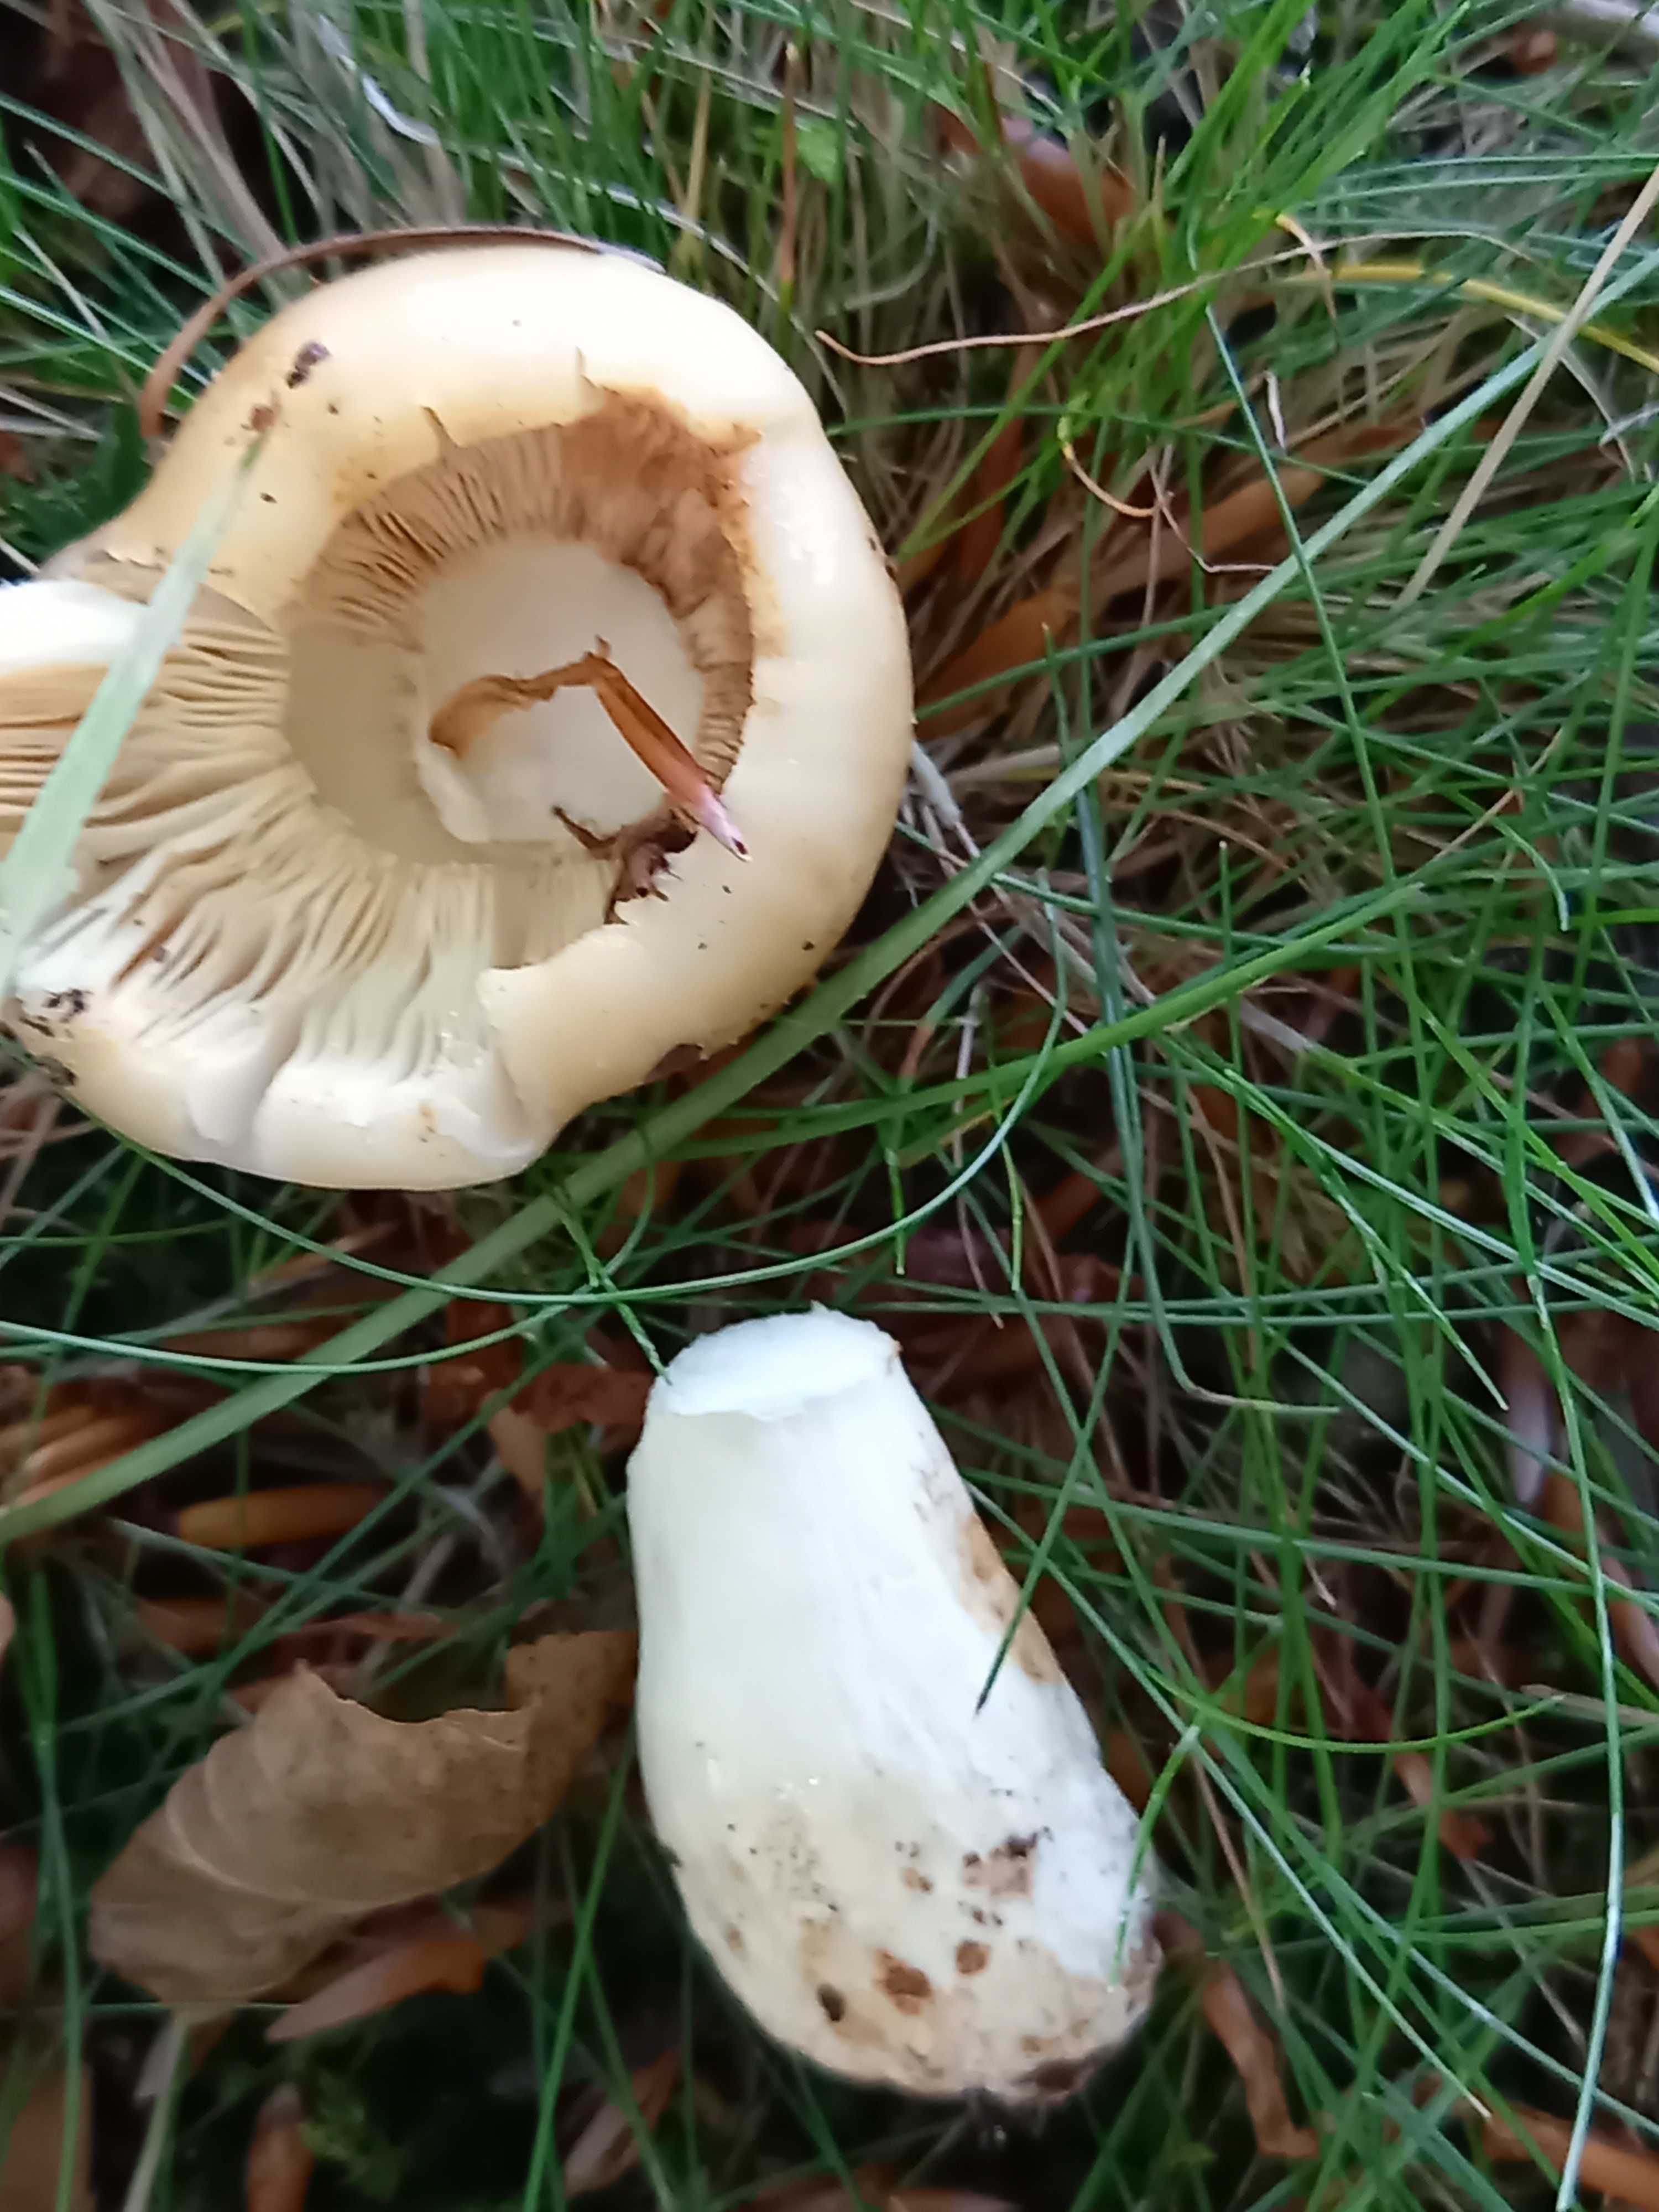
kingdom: Fungi
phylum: Basidiomycota
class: Agaricomycetes
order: Russulales
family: Russulaceae
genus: Russula
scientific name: Russula foetens
